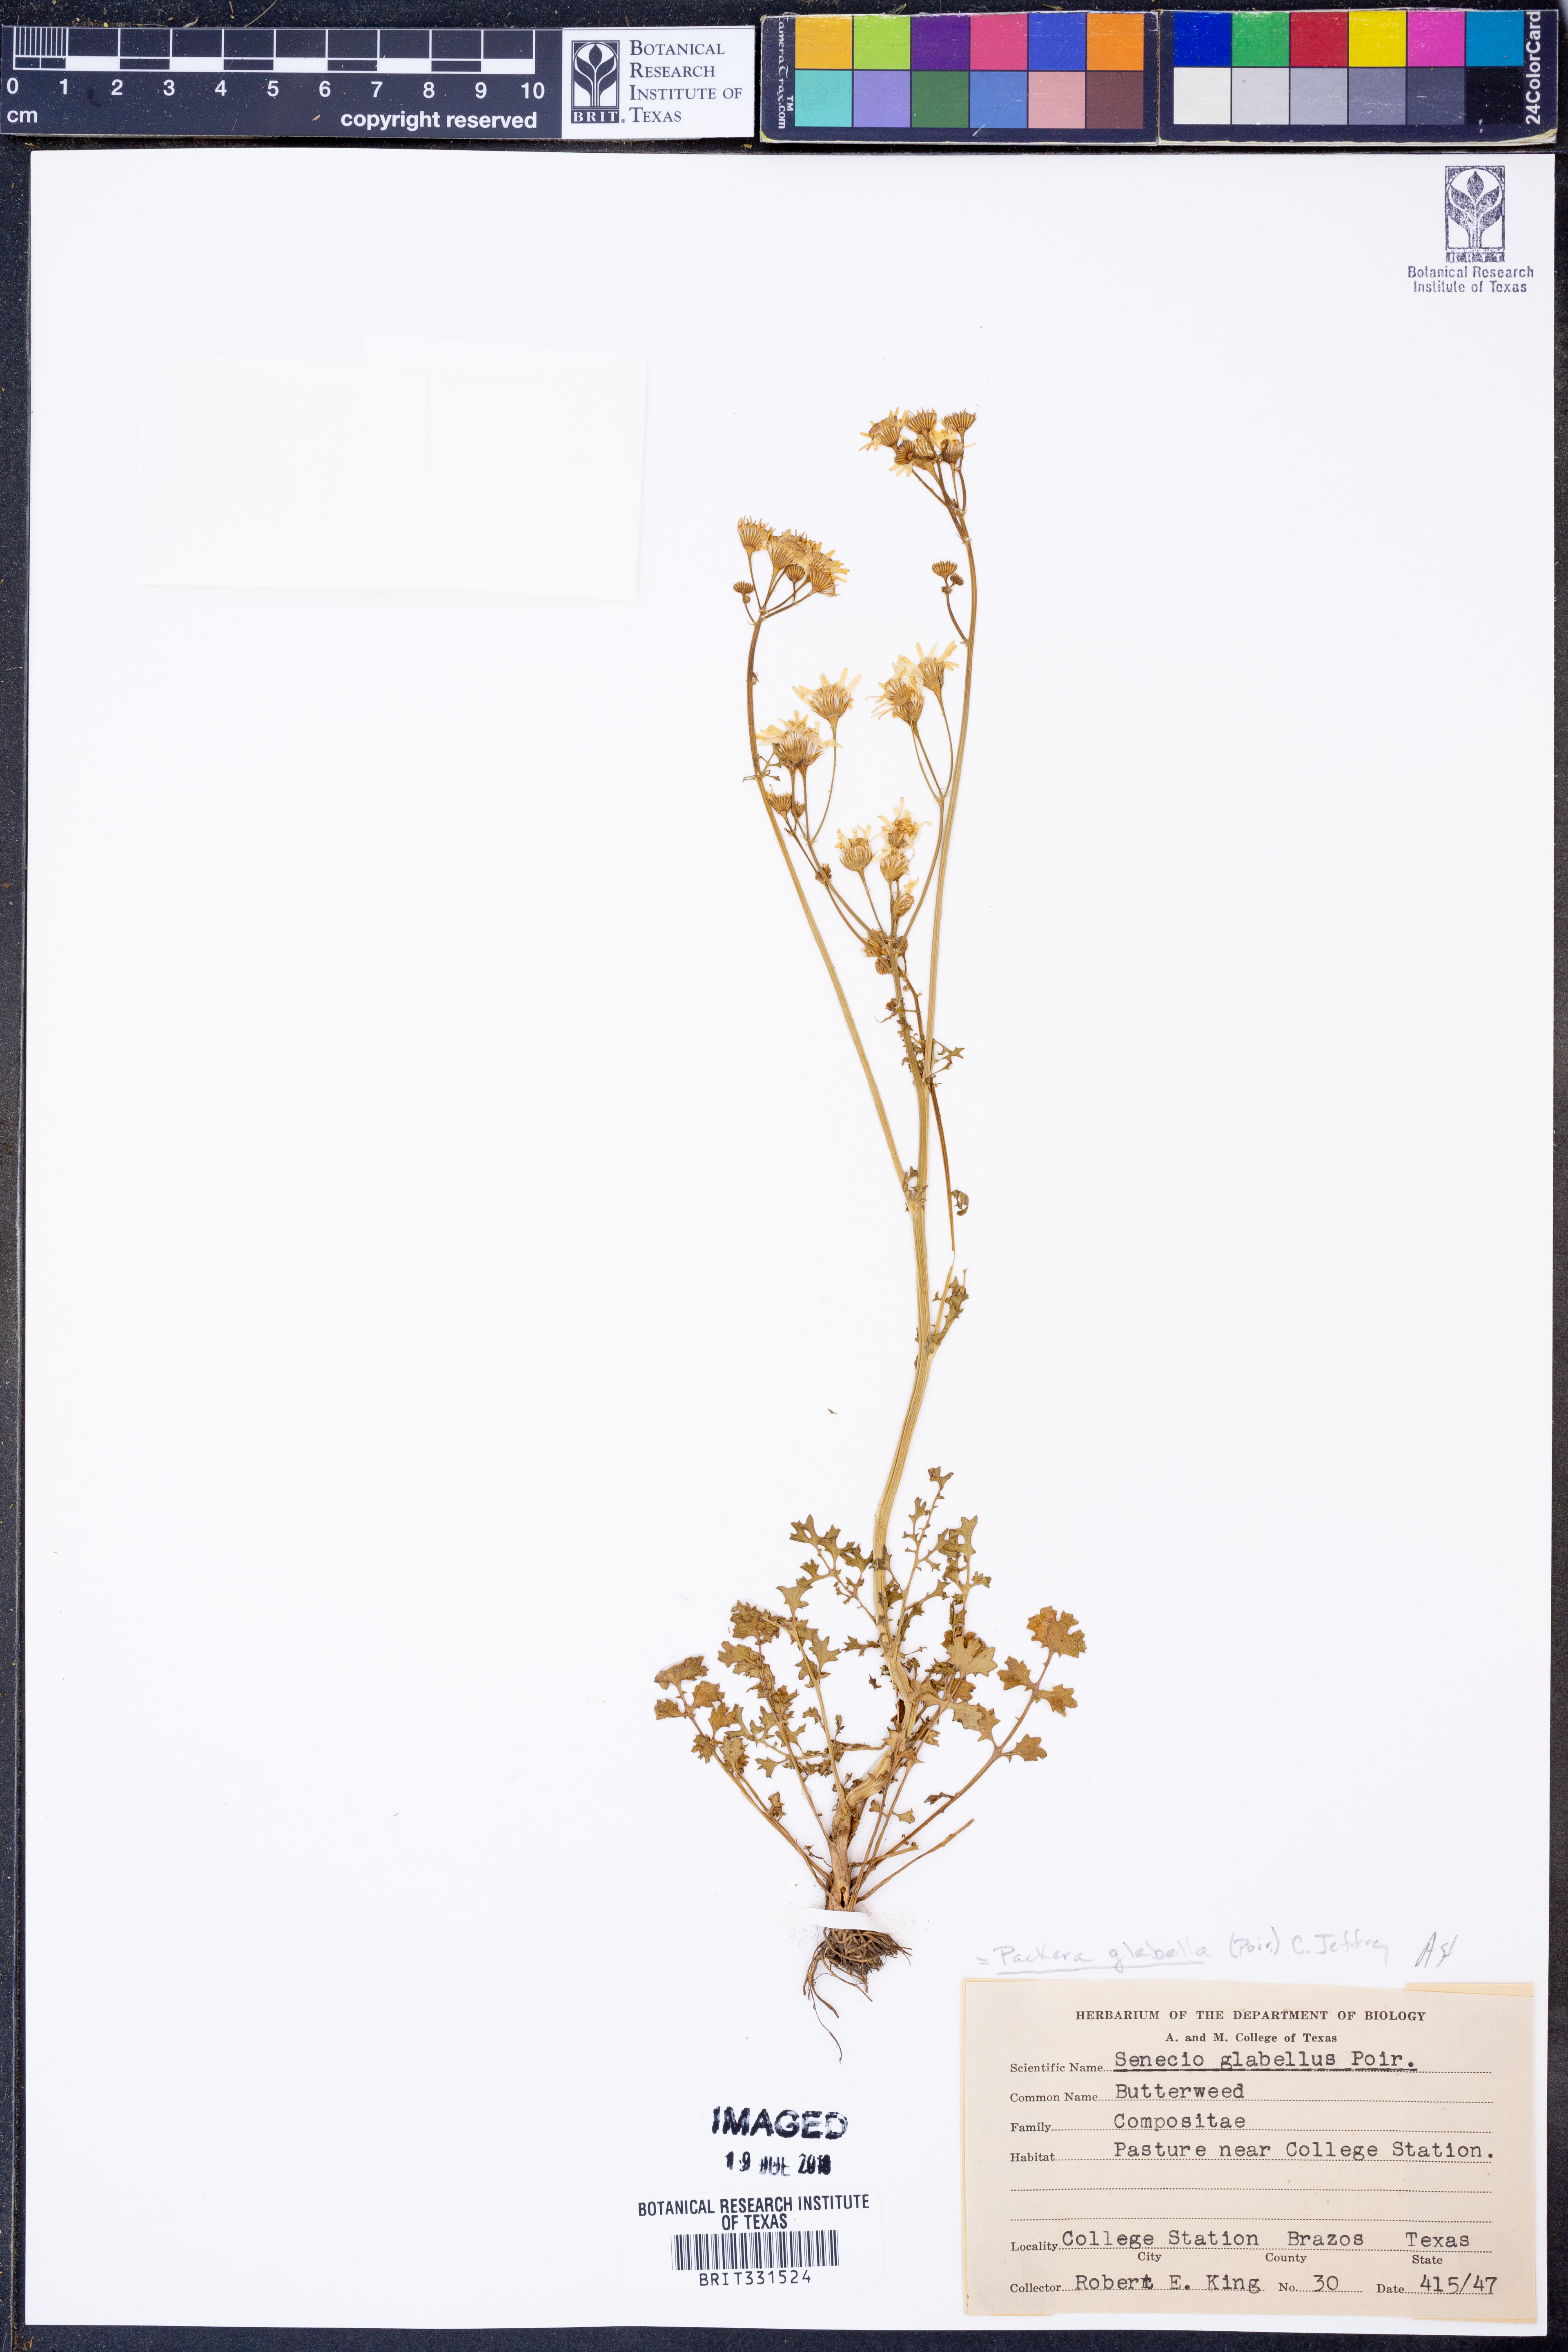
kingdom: Plantae
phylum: Tracheophyta
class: Magnoliopsida
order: Asterales
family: Asteraceae
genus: Packera
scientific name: Packera glabella
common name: Butterweed
